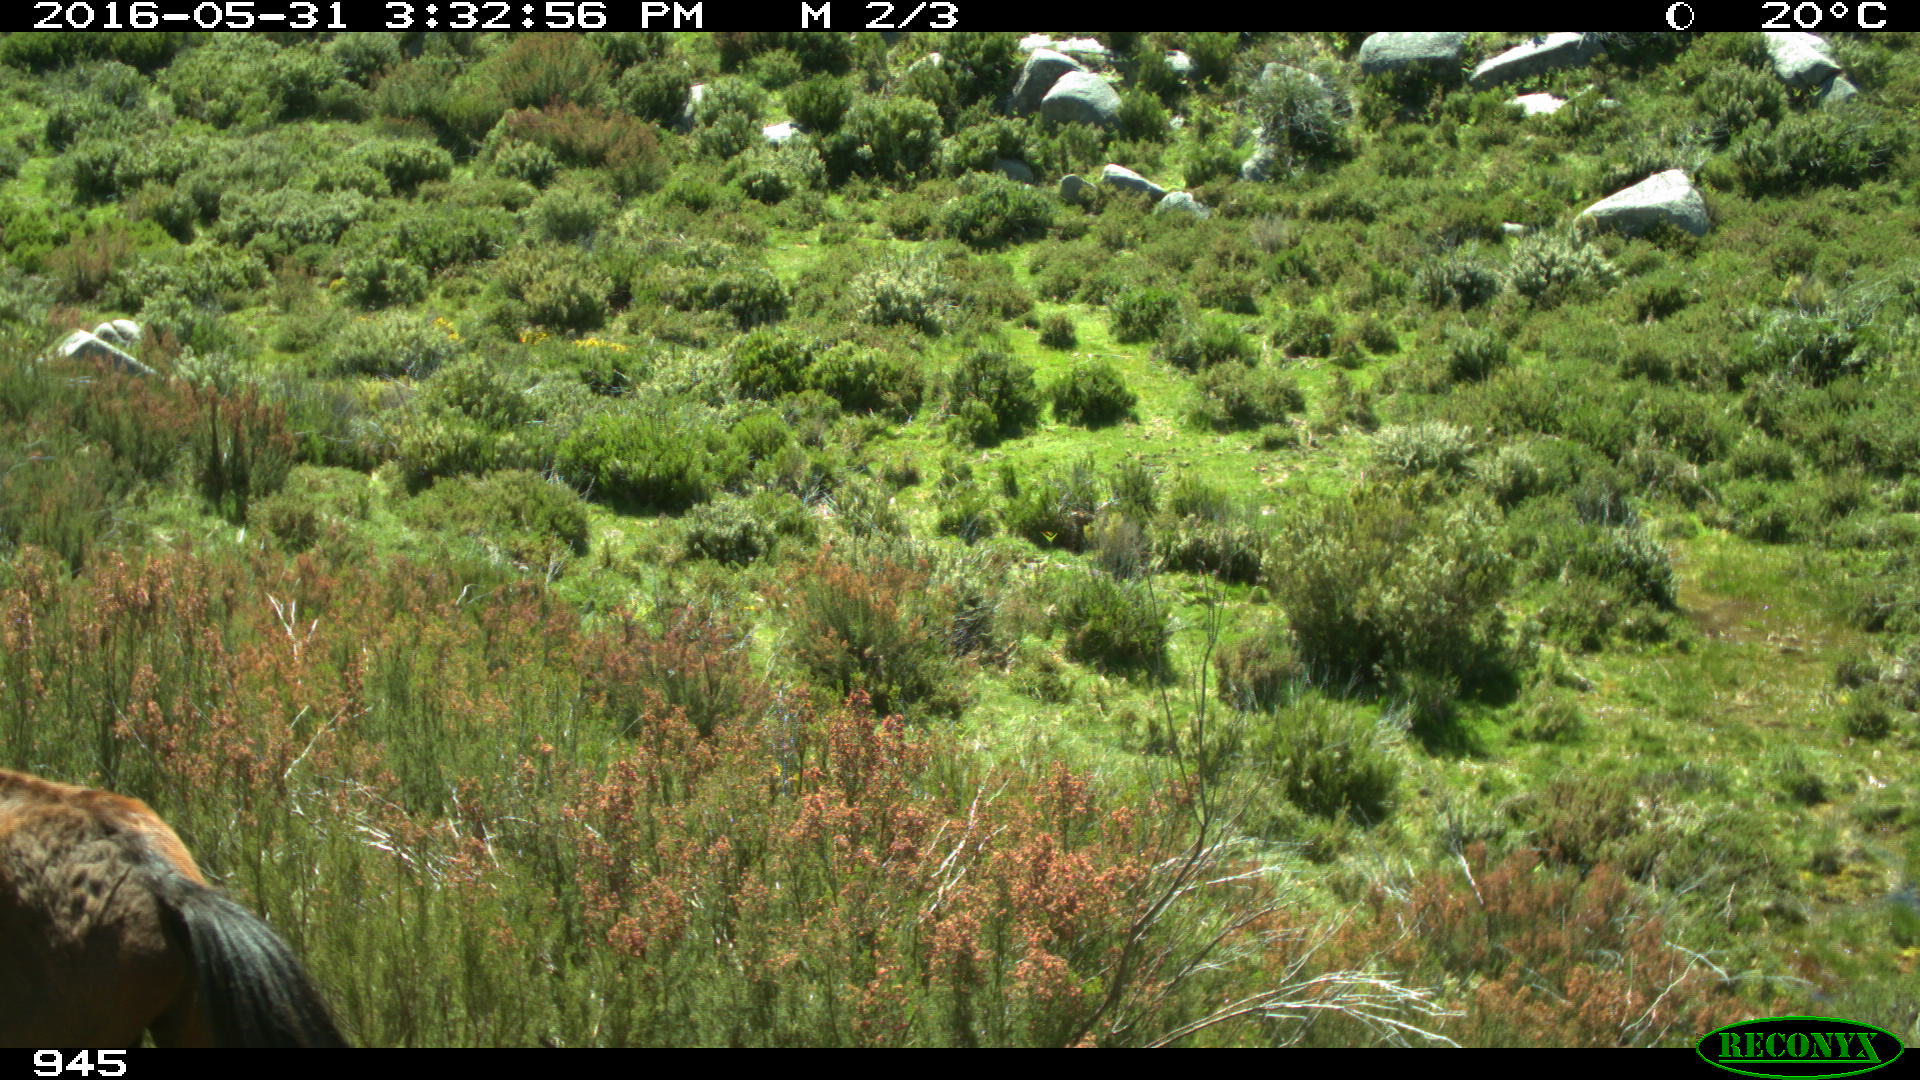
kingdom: Animalia
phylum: Chordata
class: Mammalia
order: Perissodactyla
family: Equidae
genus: Equus
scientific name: Equus caballus
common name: Horse
